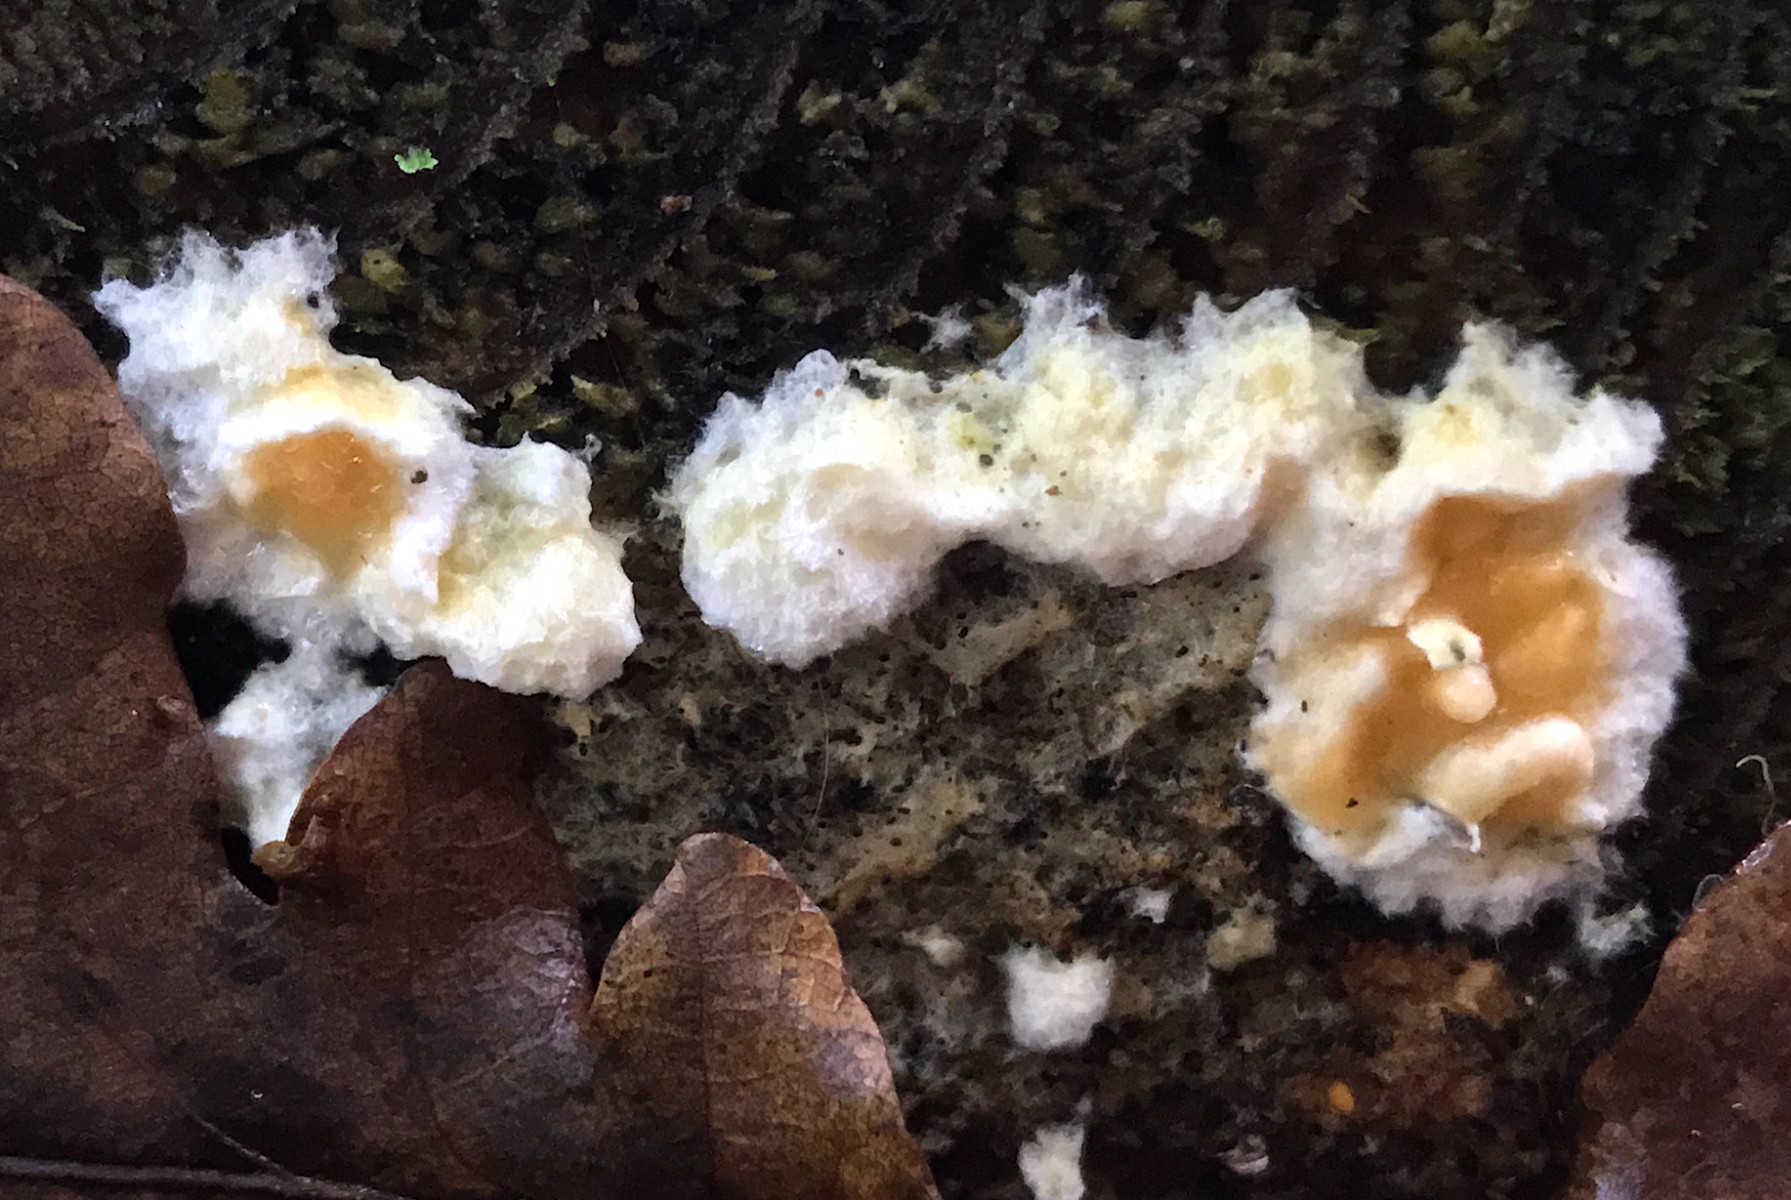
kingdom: Fungi
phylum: Basidiomycota
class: Agaricomycetes
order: Boletales
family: Hygrophoropsidaceae
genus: Leucogyrophana
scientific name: Leucogyrophana
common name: hussvamp
